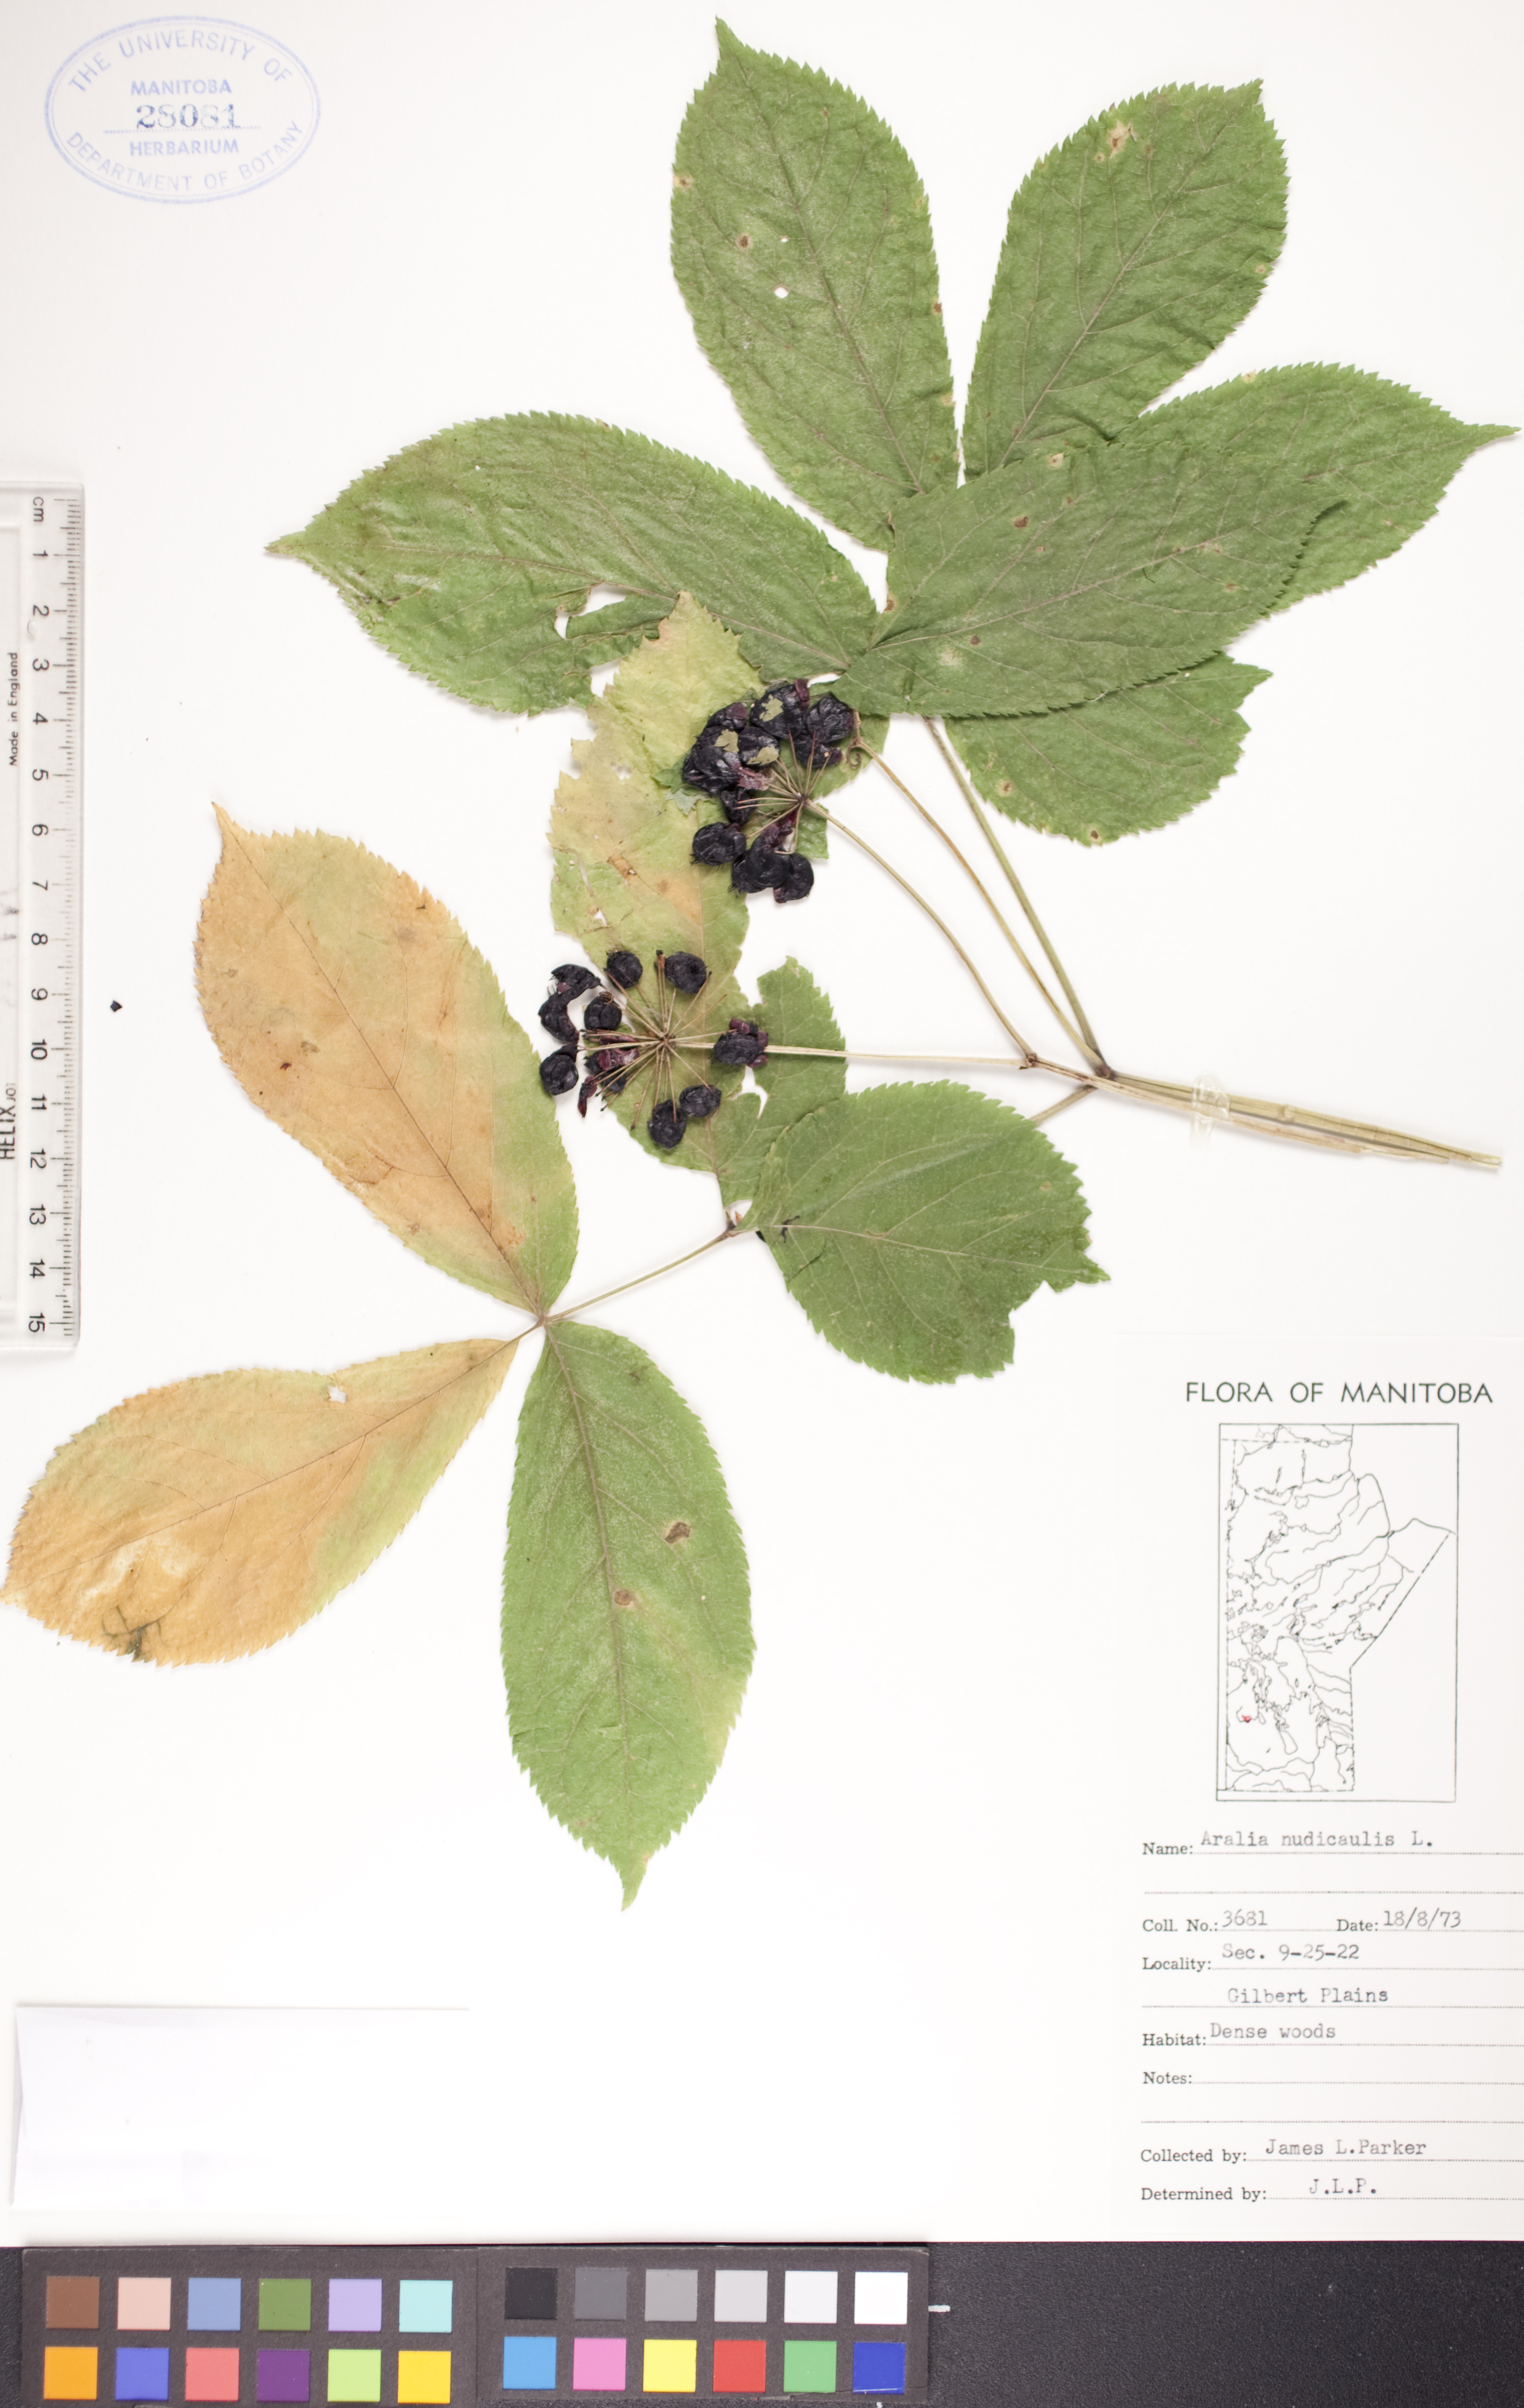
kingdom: Plantae
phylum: Tracheophyta
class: Magnoliopsida
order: Apiales
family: Araliaceae
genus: Aralia
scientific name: Aralia nudicaulis
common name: Wild sarsaparilla
